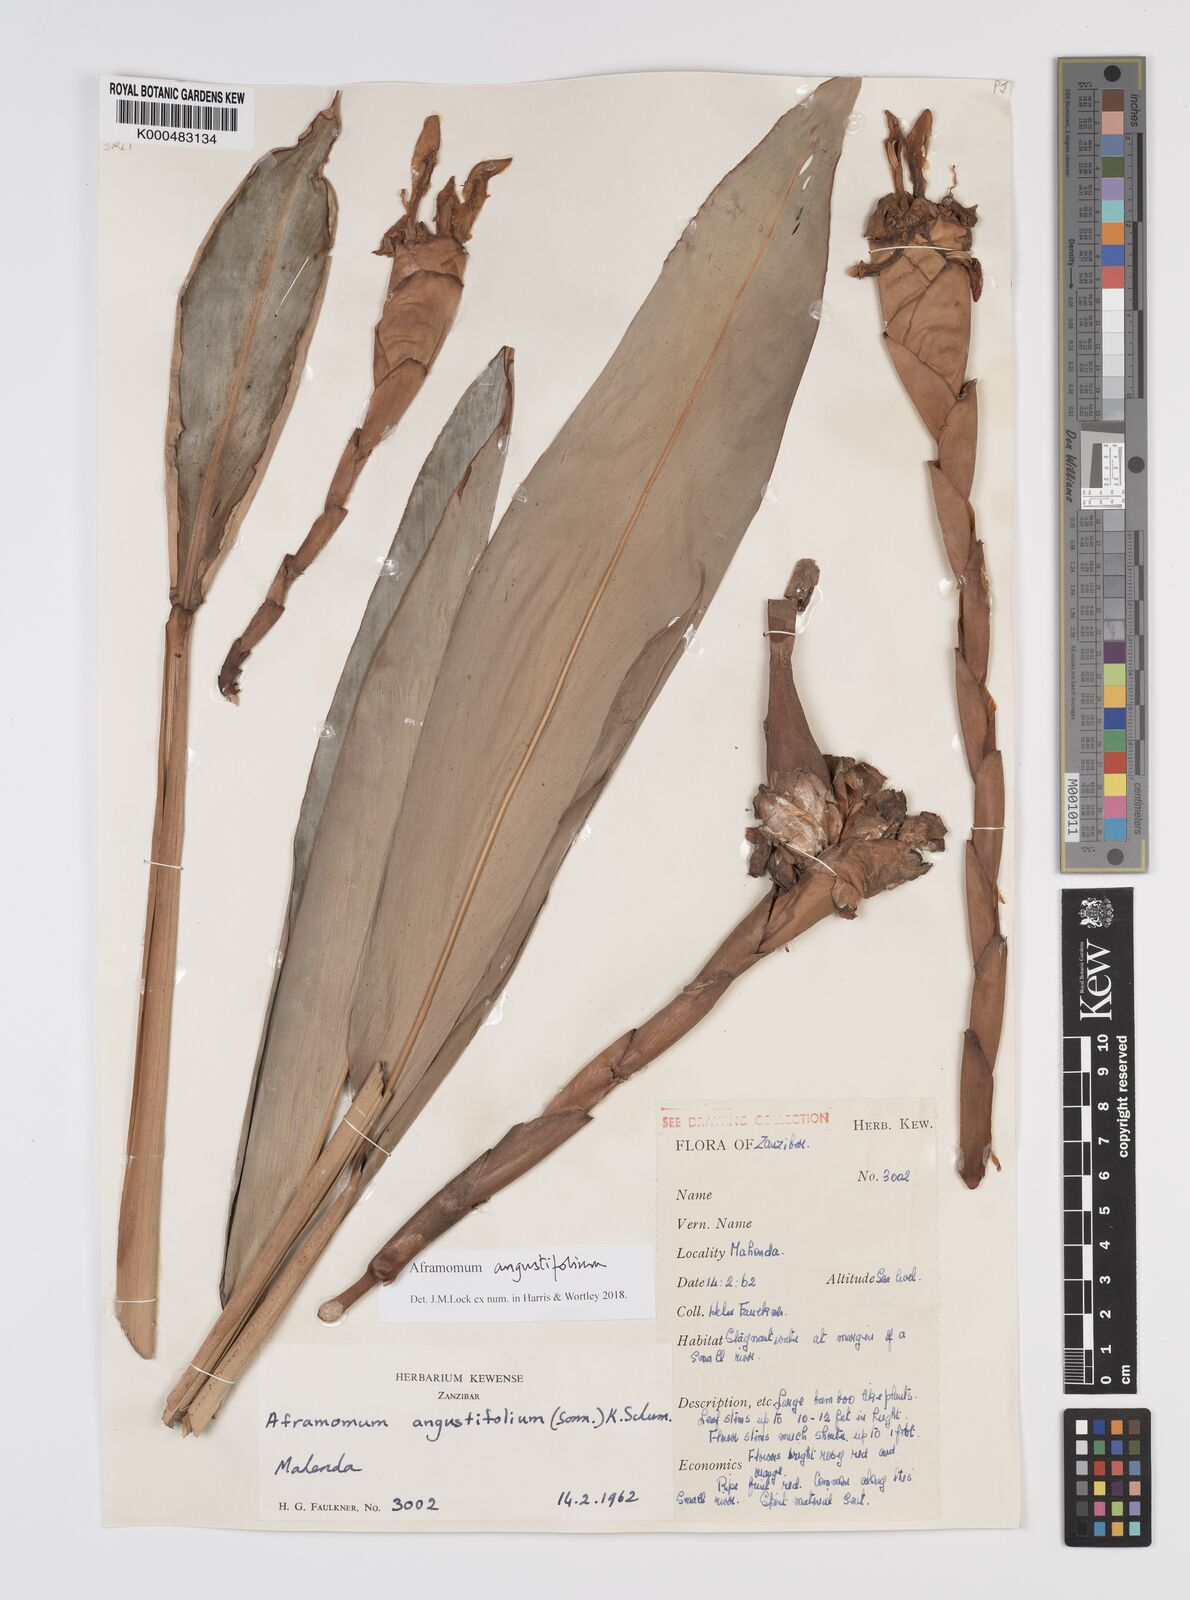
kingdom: Plantae
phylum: Tracheophyta
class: Liliopsida
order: Zingiberales
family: Zingiberaceae
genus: Aframomum
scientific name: Aframomum angustifolium
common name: Guinea grains
